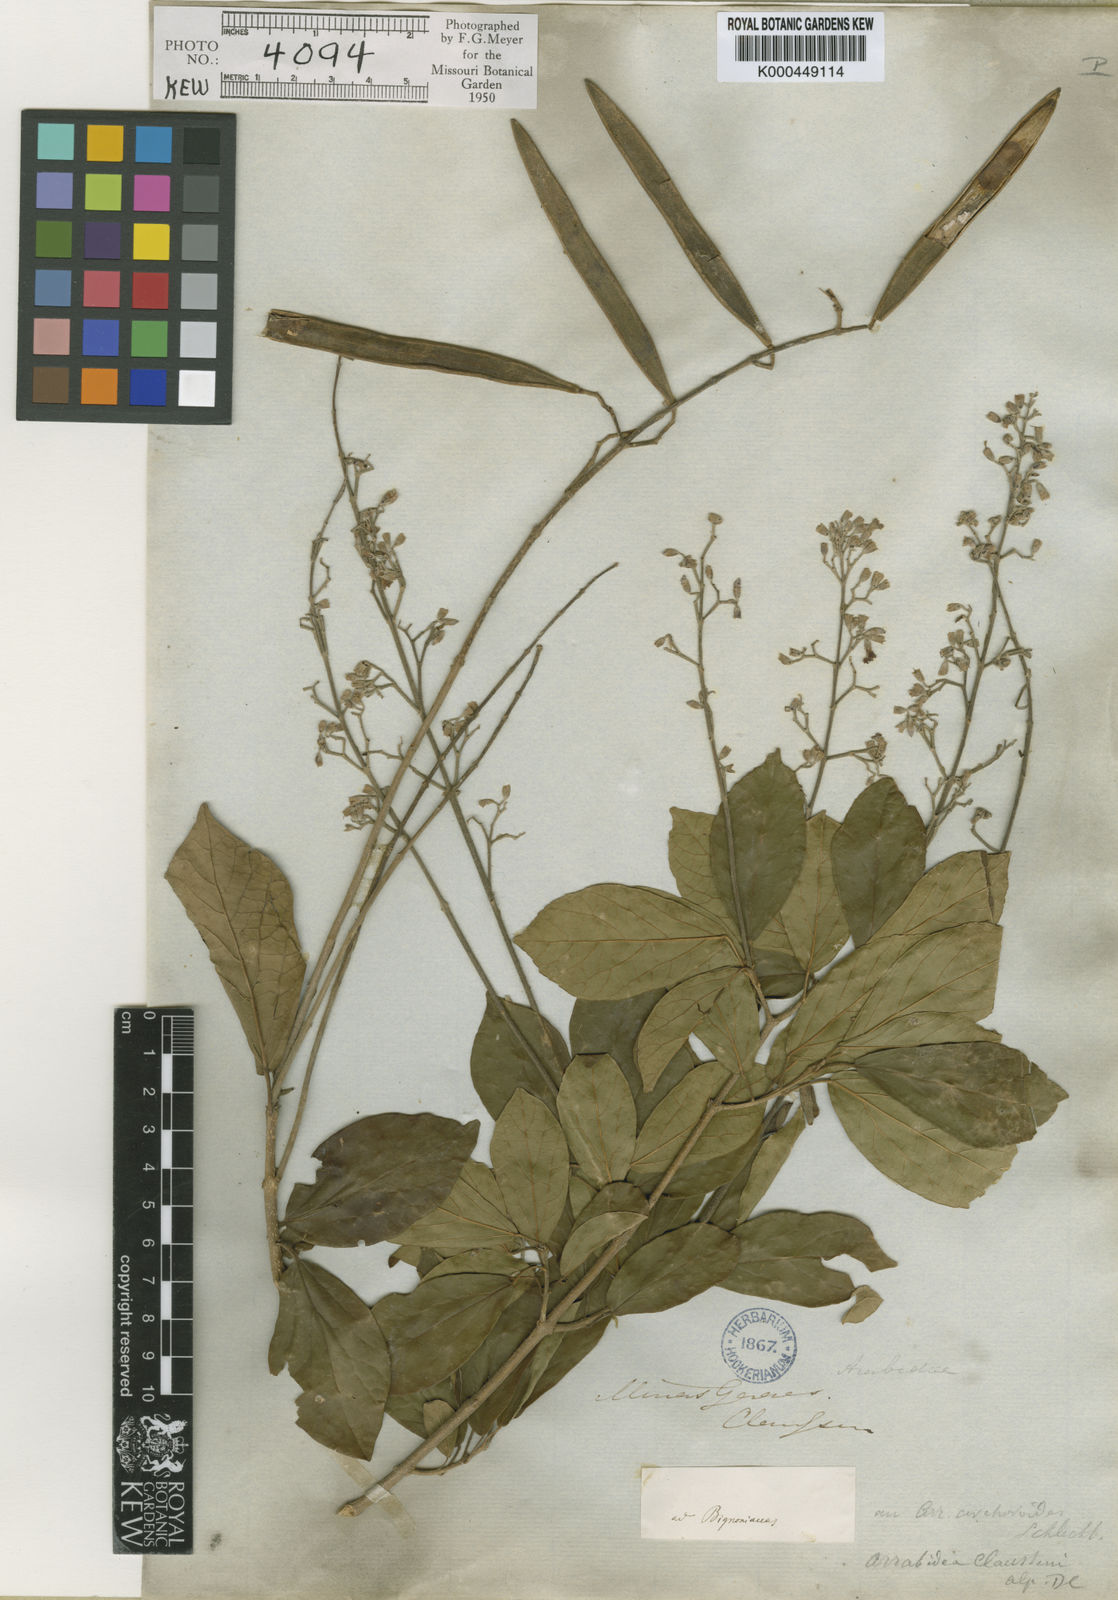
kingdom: Plantae
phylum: Tracheophyta
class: Magnoliopsida
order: Lamiales
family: Bignoniaceae
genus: Xylophragma
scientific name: Xylophragma claussenii
